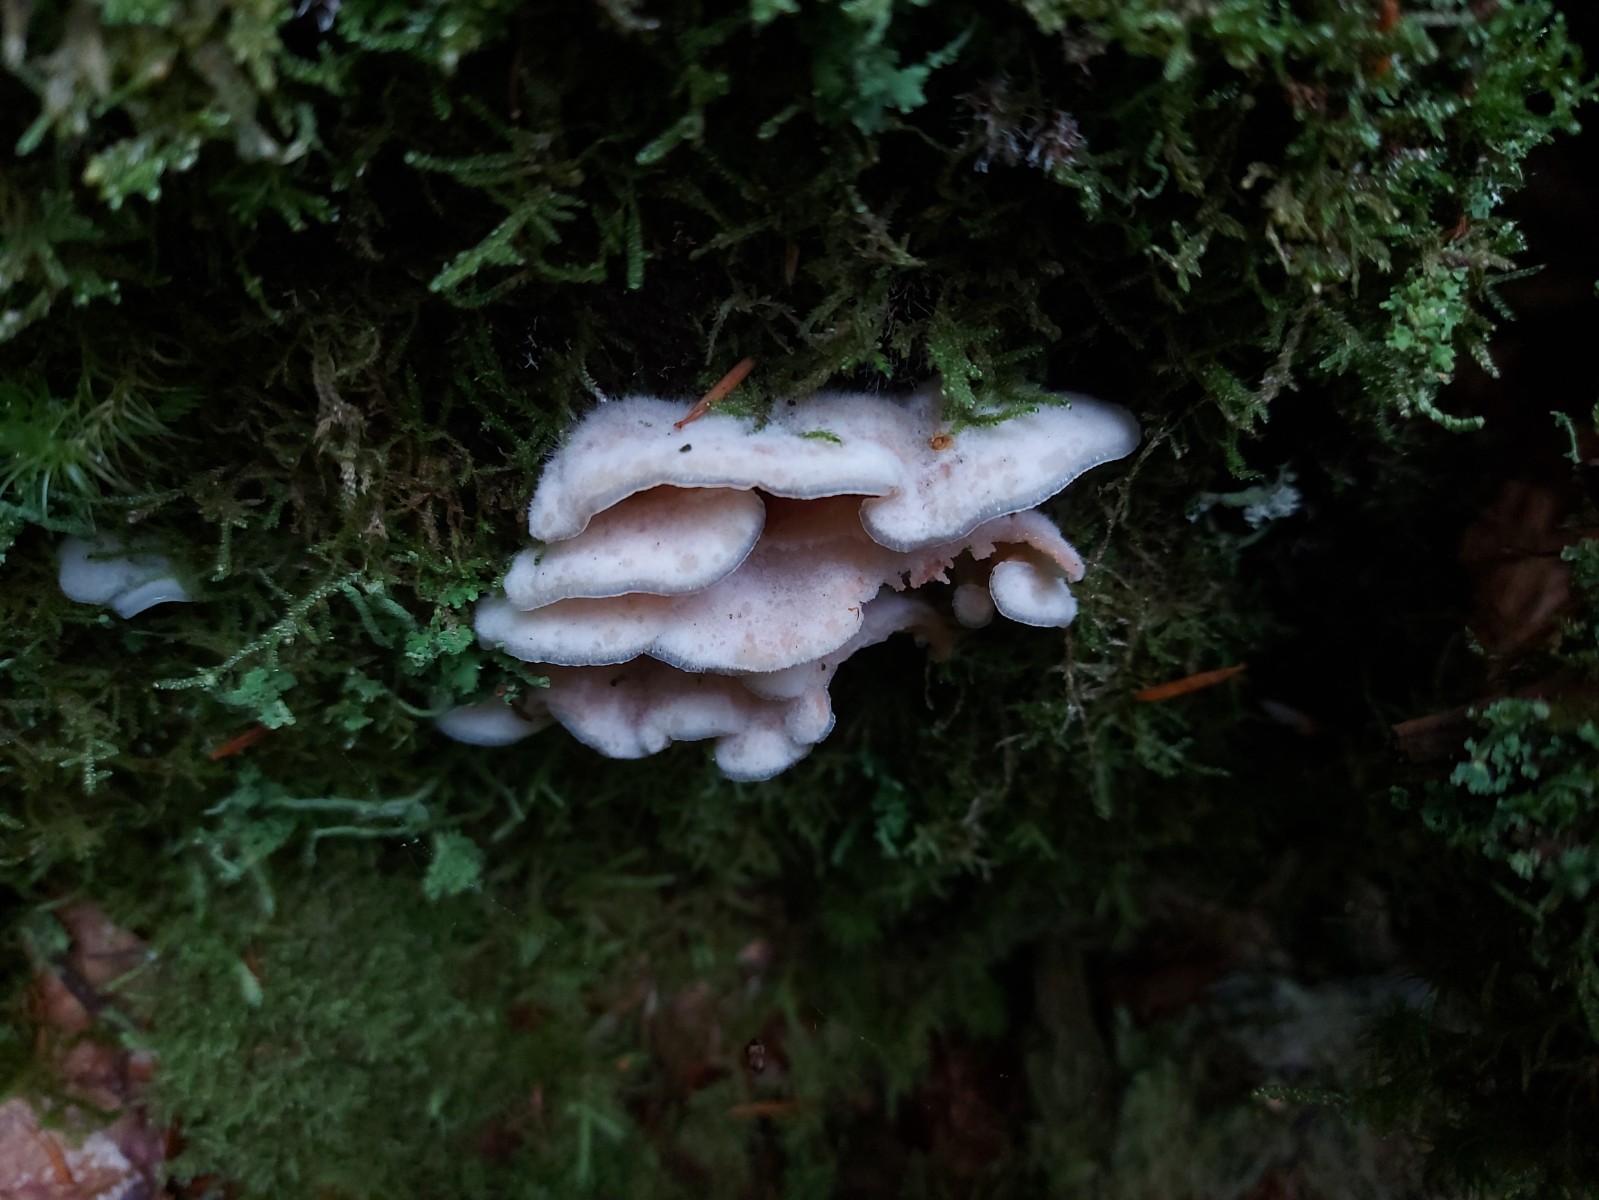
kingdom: Fungi
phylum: Basidiomycota
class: Agaricomycetes
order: Polyporales
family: Meruliaceae
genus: Phlebia
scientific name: Phlebia tremellosa
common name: bævrende åresvamp
